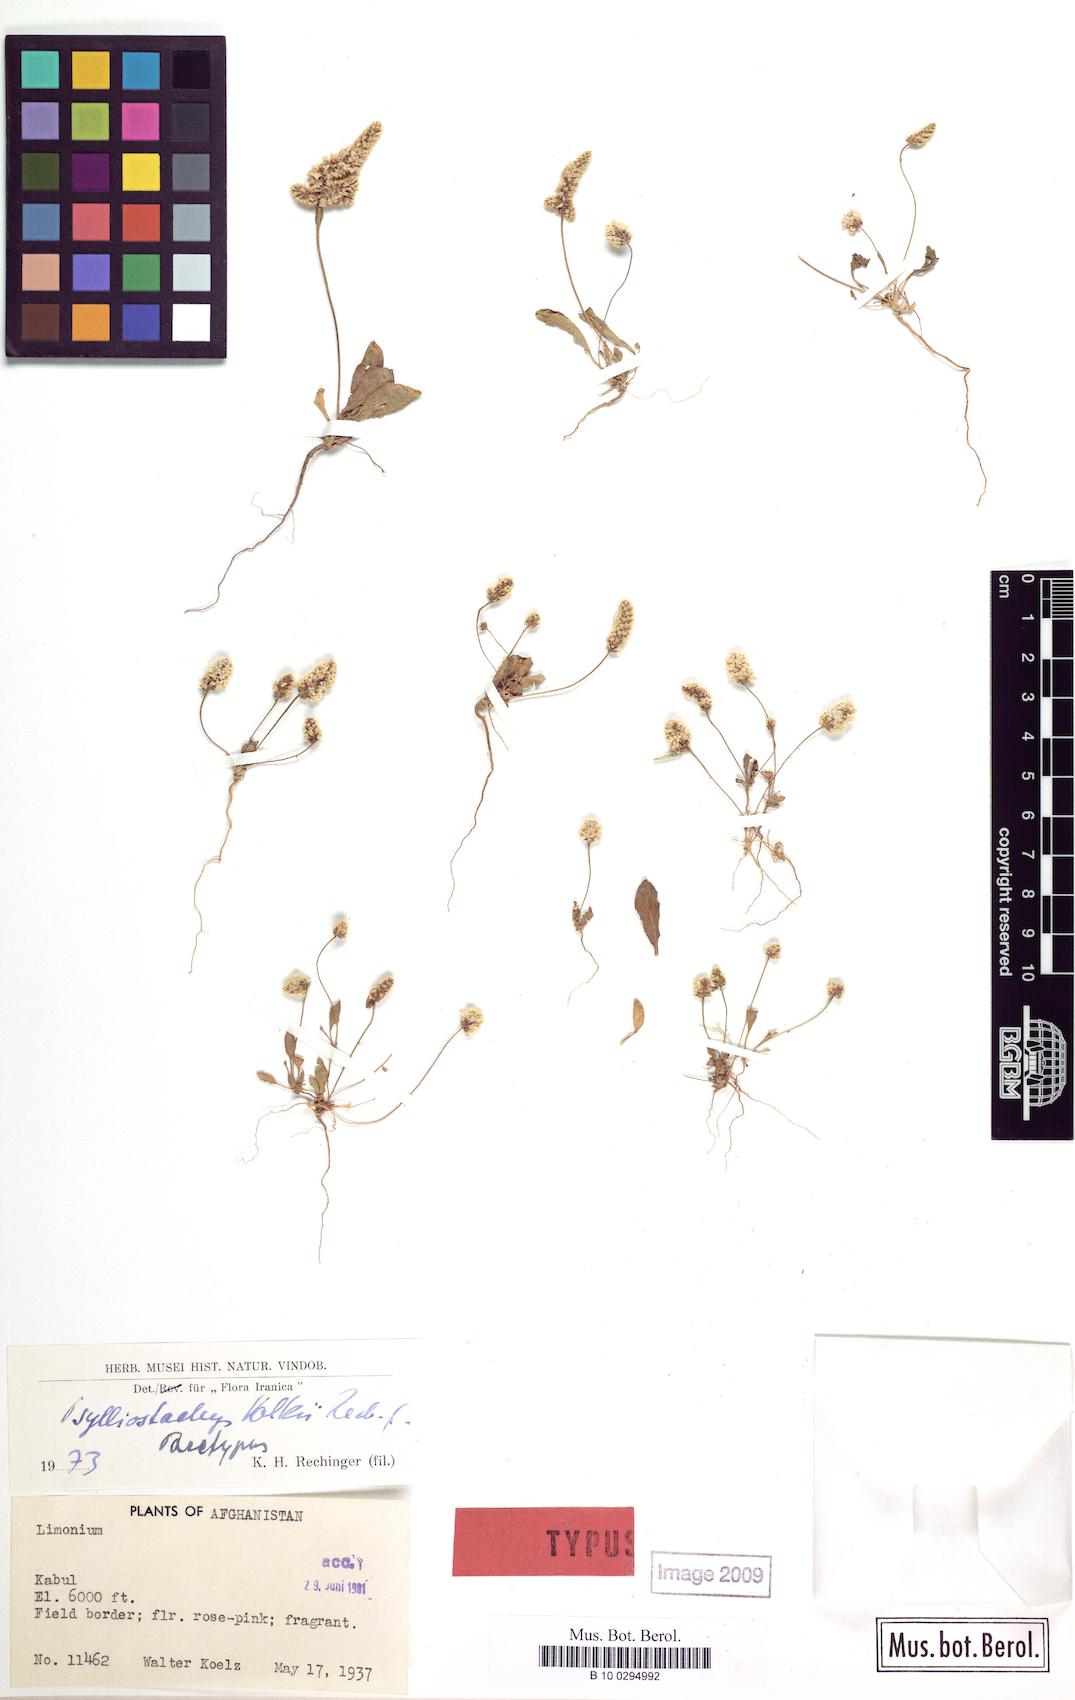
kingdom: Plantae
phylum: Tracheophyta
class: Magnoliopsida
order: Caryophyllales
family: Plumbaginaceae
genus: Psylliostachys
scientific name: Psylliostachys volkii
